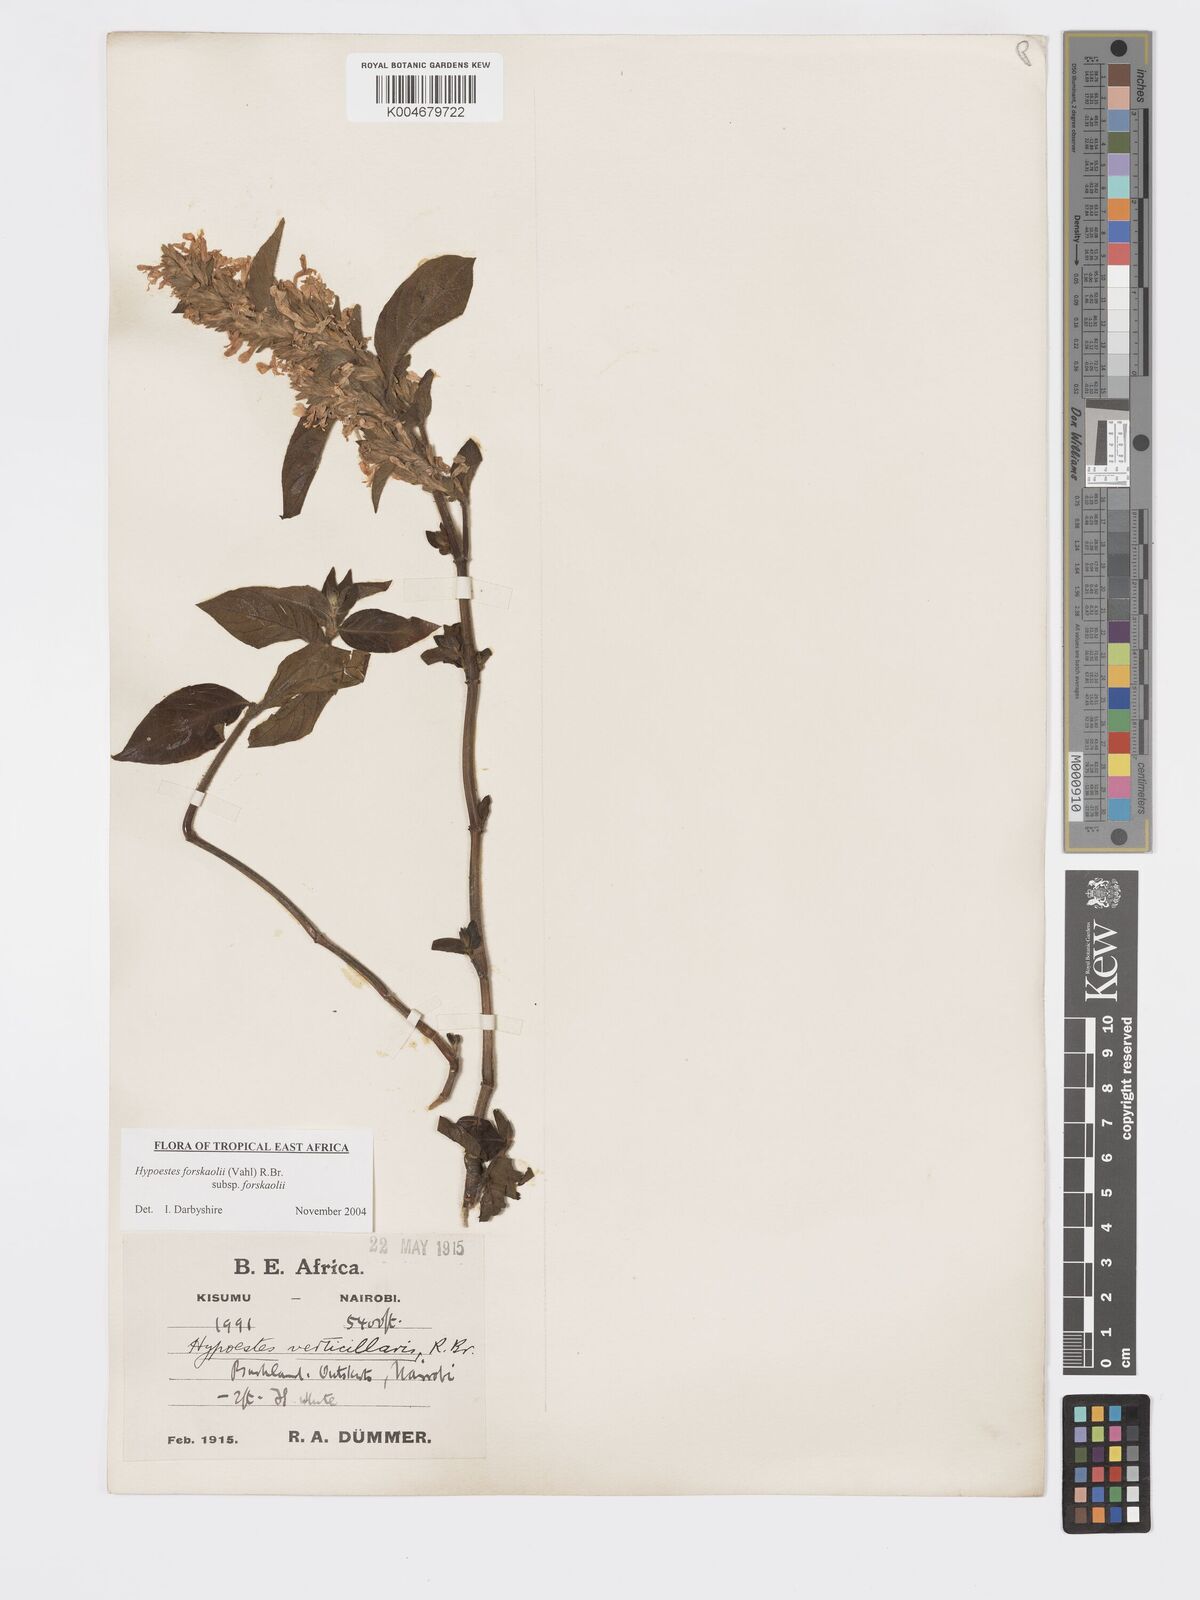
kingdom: Plantae
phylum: Tracheophyta
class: Magnoliopsida
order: Lamiales
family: Acanthaceae
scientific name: Acanthaceae
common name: Acanthaceae
